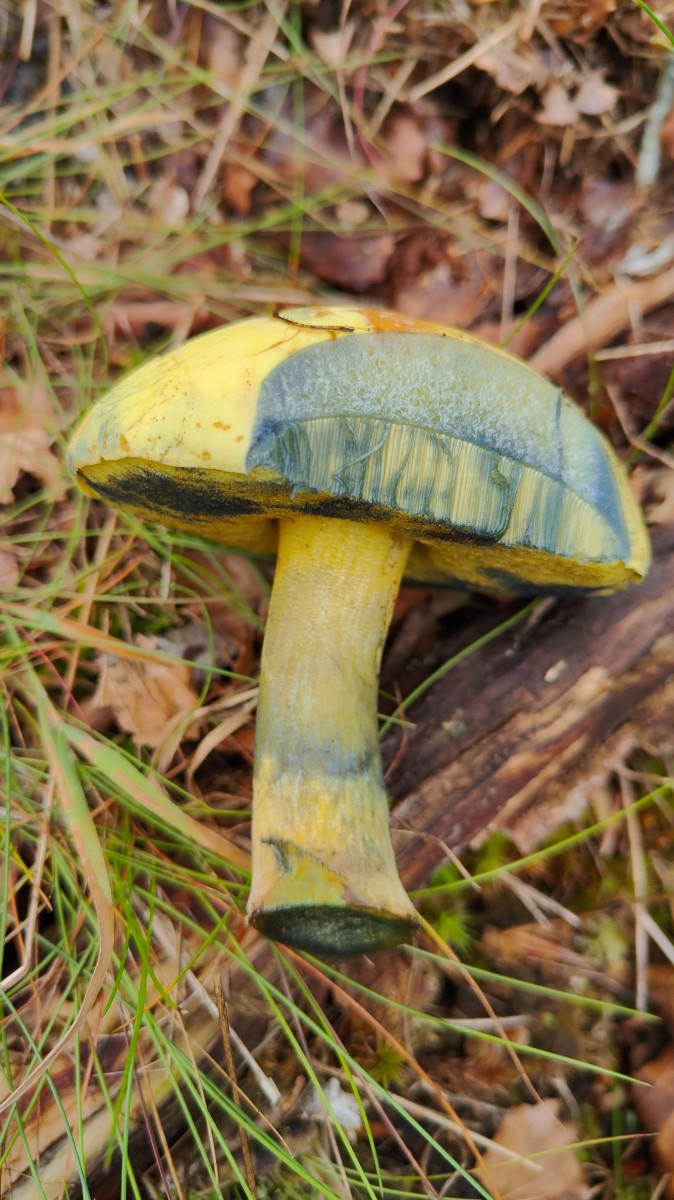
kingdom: Fungi
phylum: Basidiomycota
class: Agaricomycetes
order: Boletales
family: Boletaceae
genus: Neoboletus
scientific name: Neoboletus praestigiator
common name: gul indigorørhat
